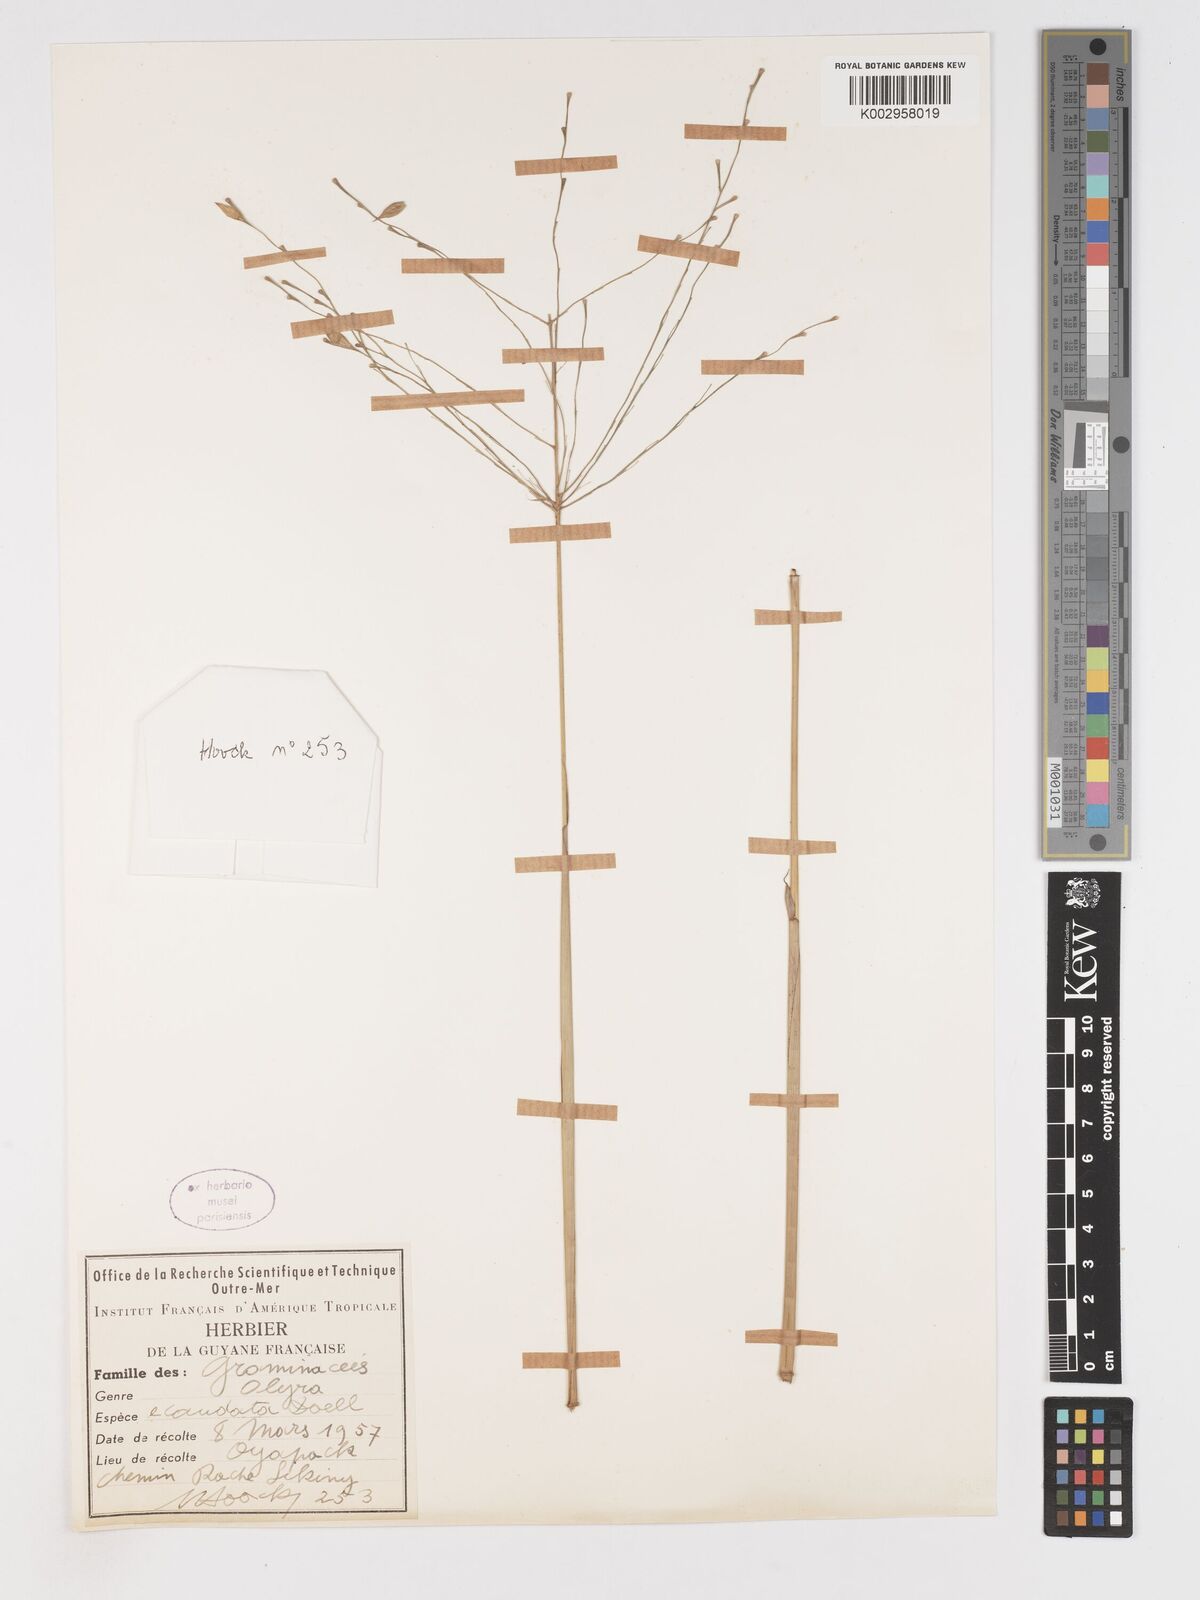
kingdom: Plantae
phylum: Tracheophyta
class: Liliopsida
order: Poales
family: Poaceae
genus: Olyra
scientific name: Olyra ecaudata
